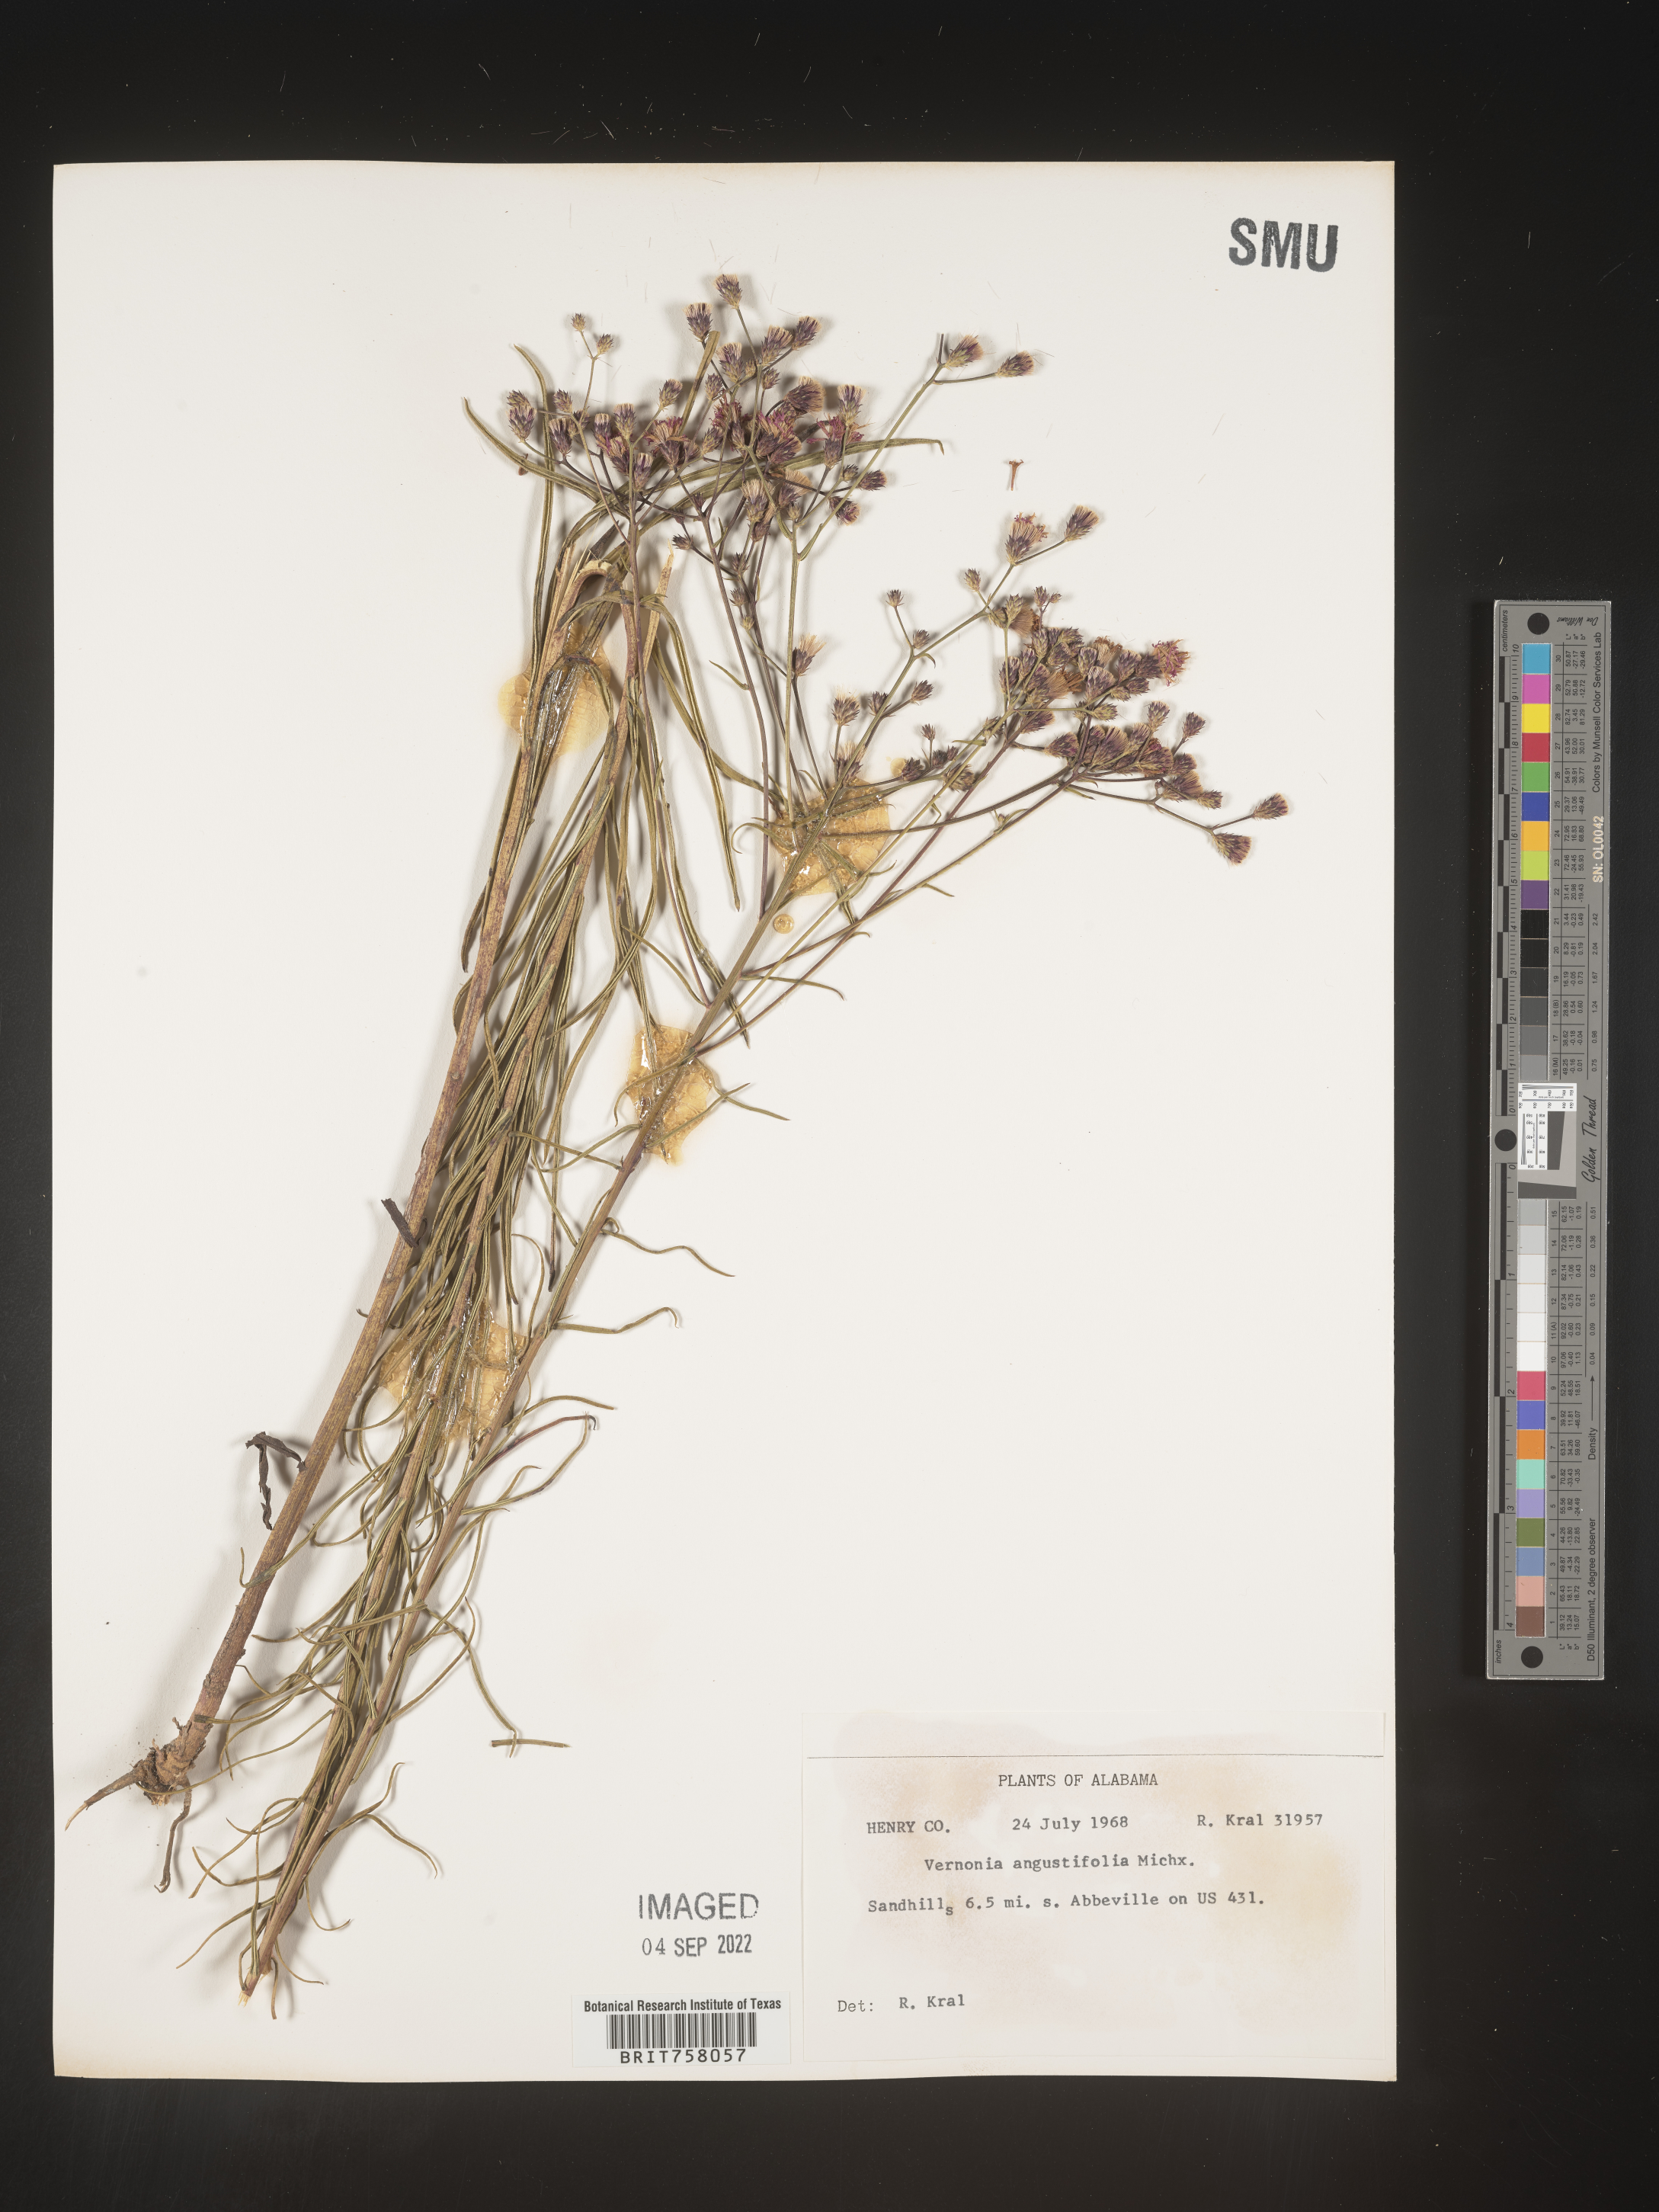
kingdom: Plantae
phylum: Tracheophyta
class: Magnoliopsida
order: Asterales
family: Asteraceae
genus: Vernonia
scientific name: Vernonia angustifolia
